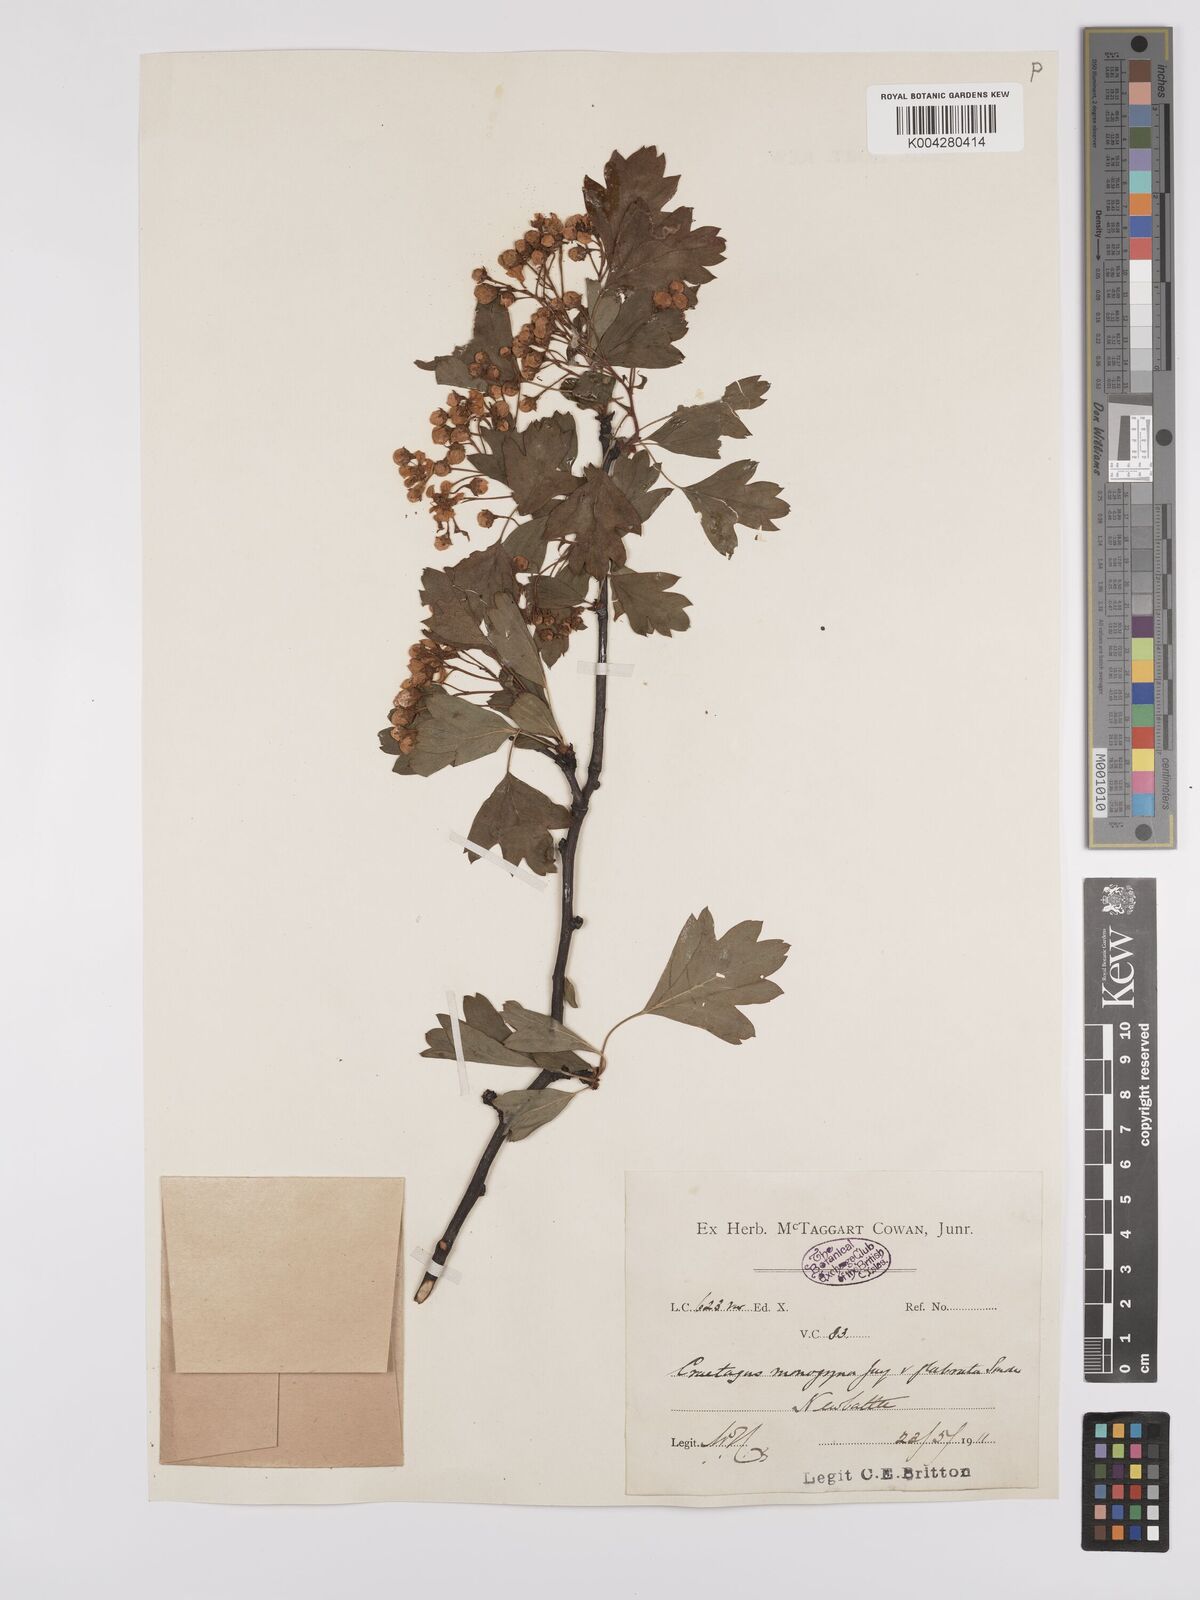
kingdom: Plantae
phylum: Tracheophyta
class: Magnoliopsida
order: Rosales
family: Rosaceae
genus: Crataegus
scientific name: Crataegus monogyna
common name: Hawthorn
